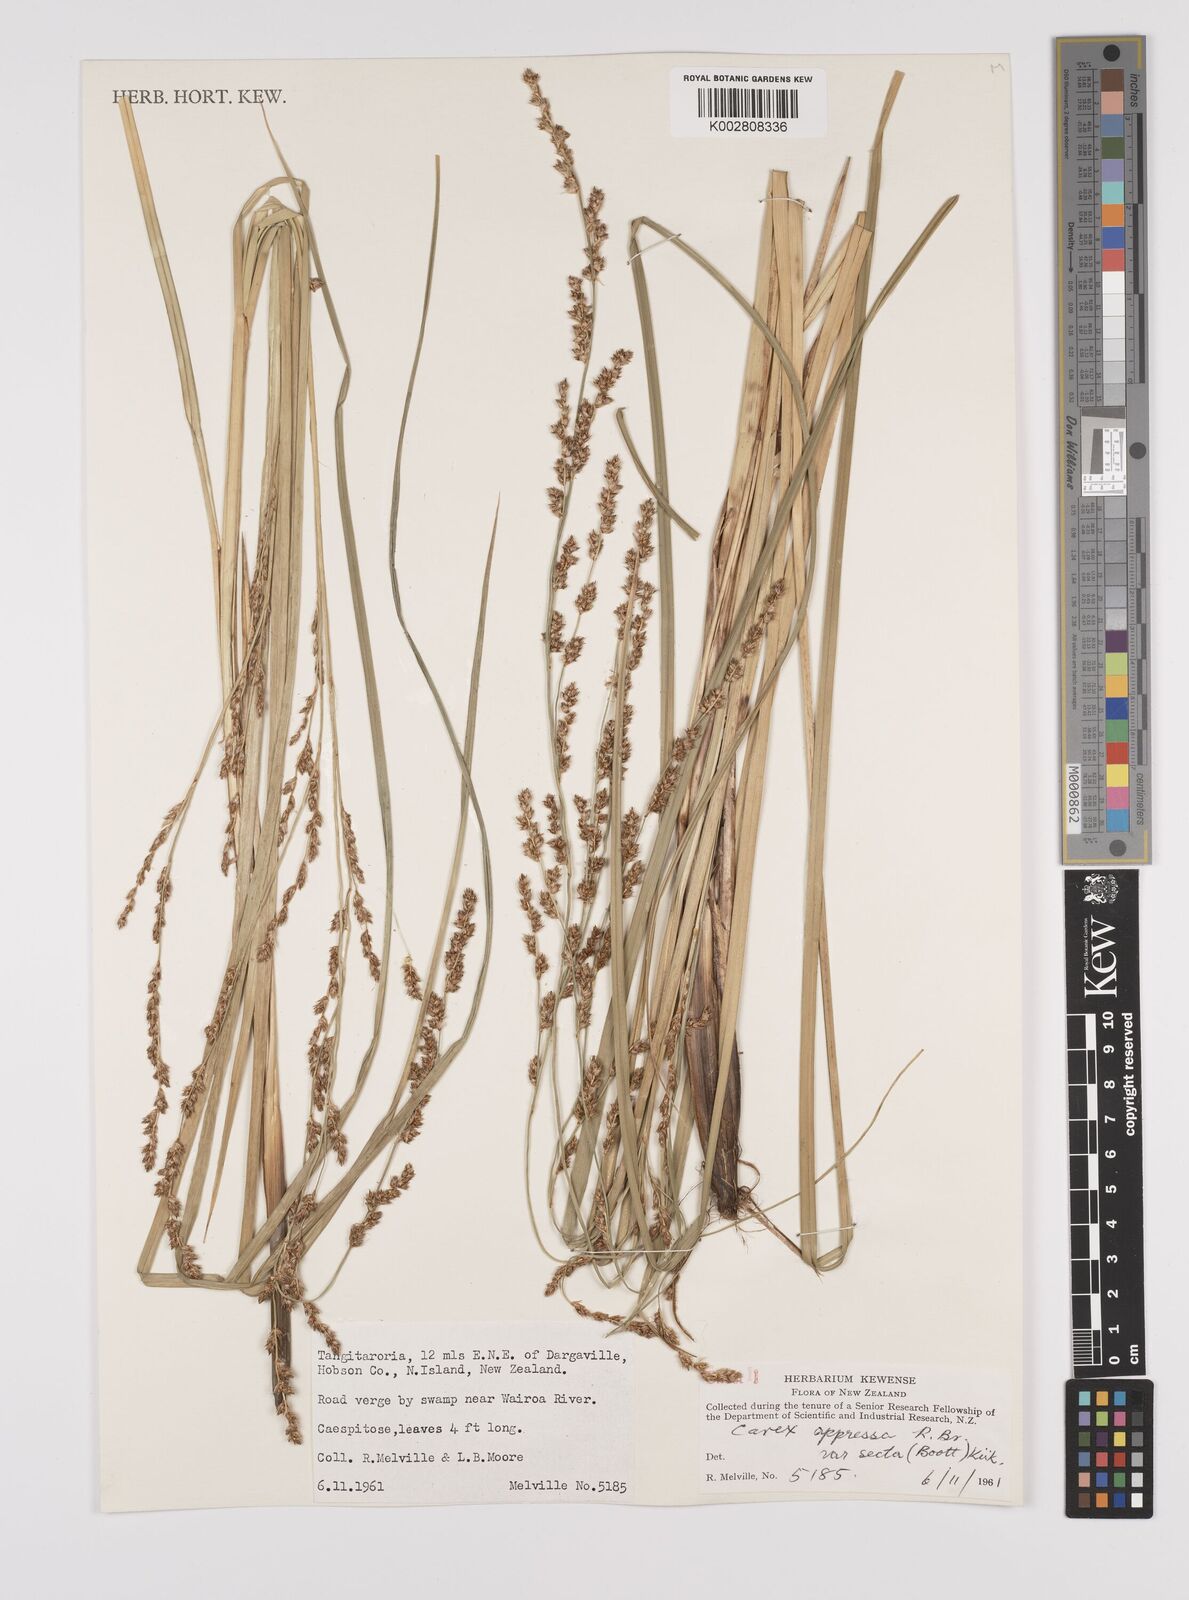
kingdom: Plantae
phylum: Tracheophyta
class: Liliopsida
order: Poales
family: Cyperaceae
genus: Carex
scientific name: Carex appressa
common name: Tussock sedge
